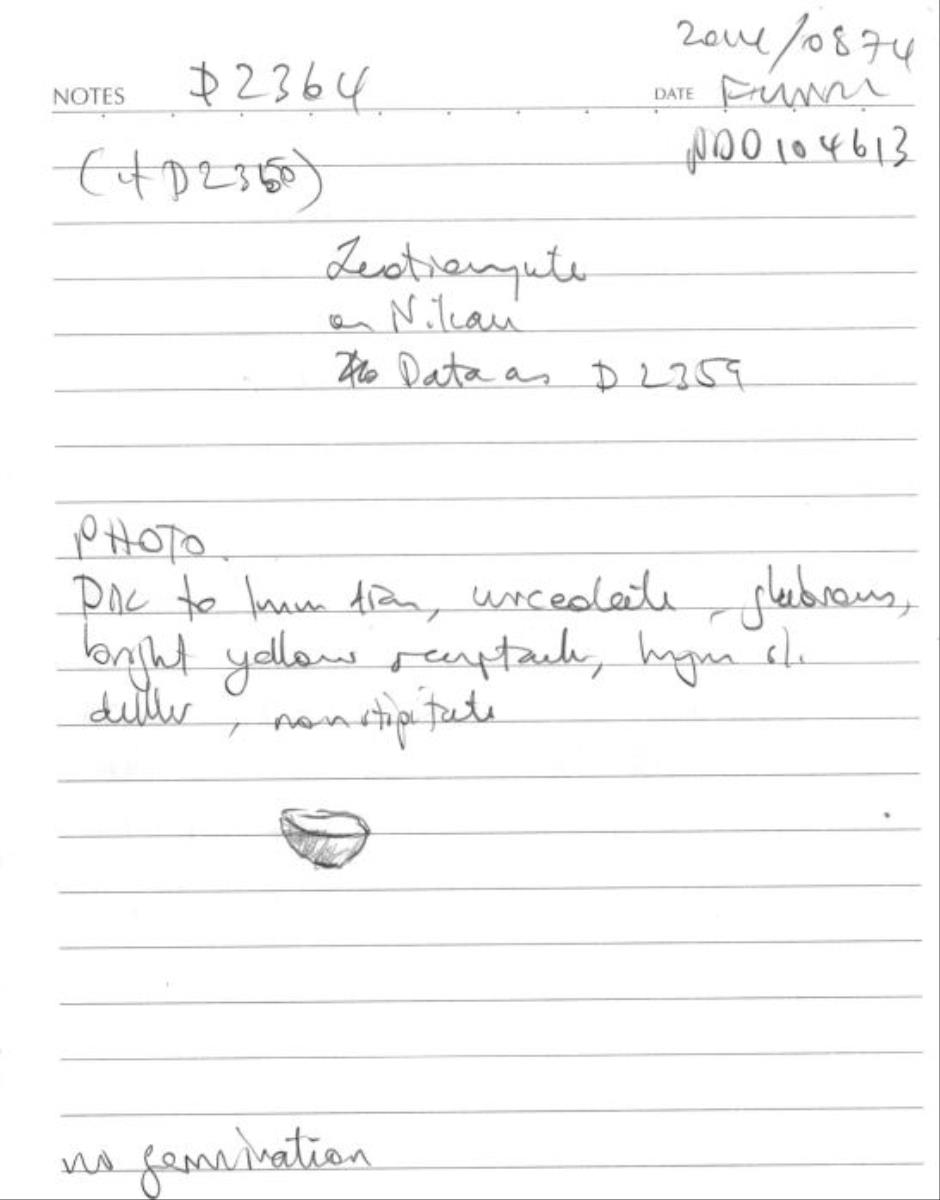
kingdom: Fungi
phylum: Ascomycota
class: Leotiomycetes
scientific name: Leotiomycetes
